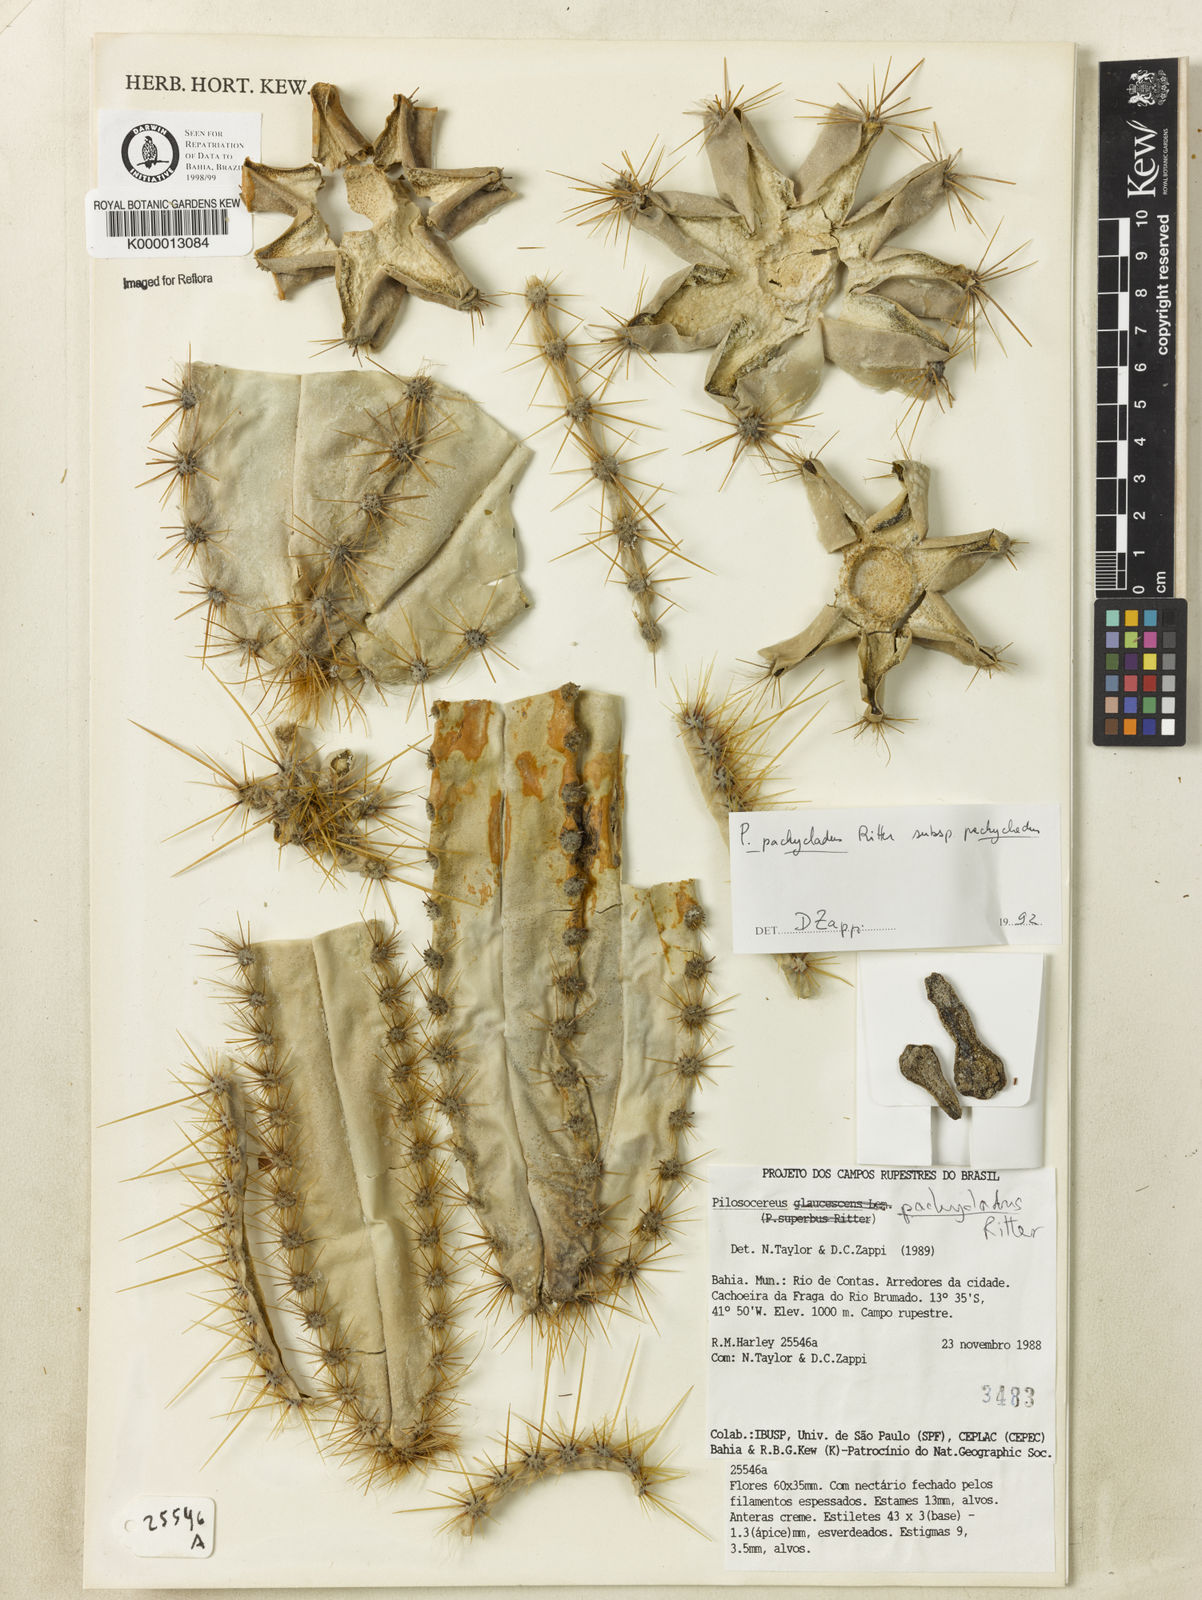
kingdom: Plantae
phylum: Tracheophyta
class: Magnoliopsida
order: Caryophyllales
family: Cactaceae
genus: Pilosocereus
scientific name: Pilosocereus pachycladus
